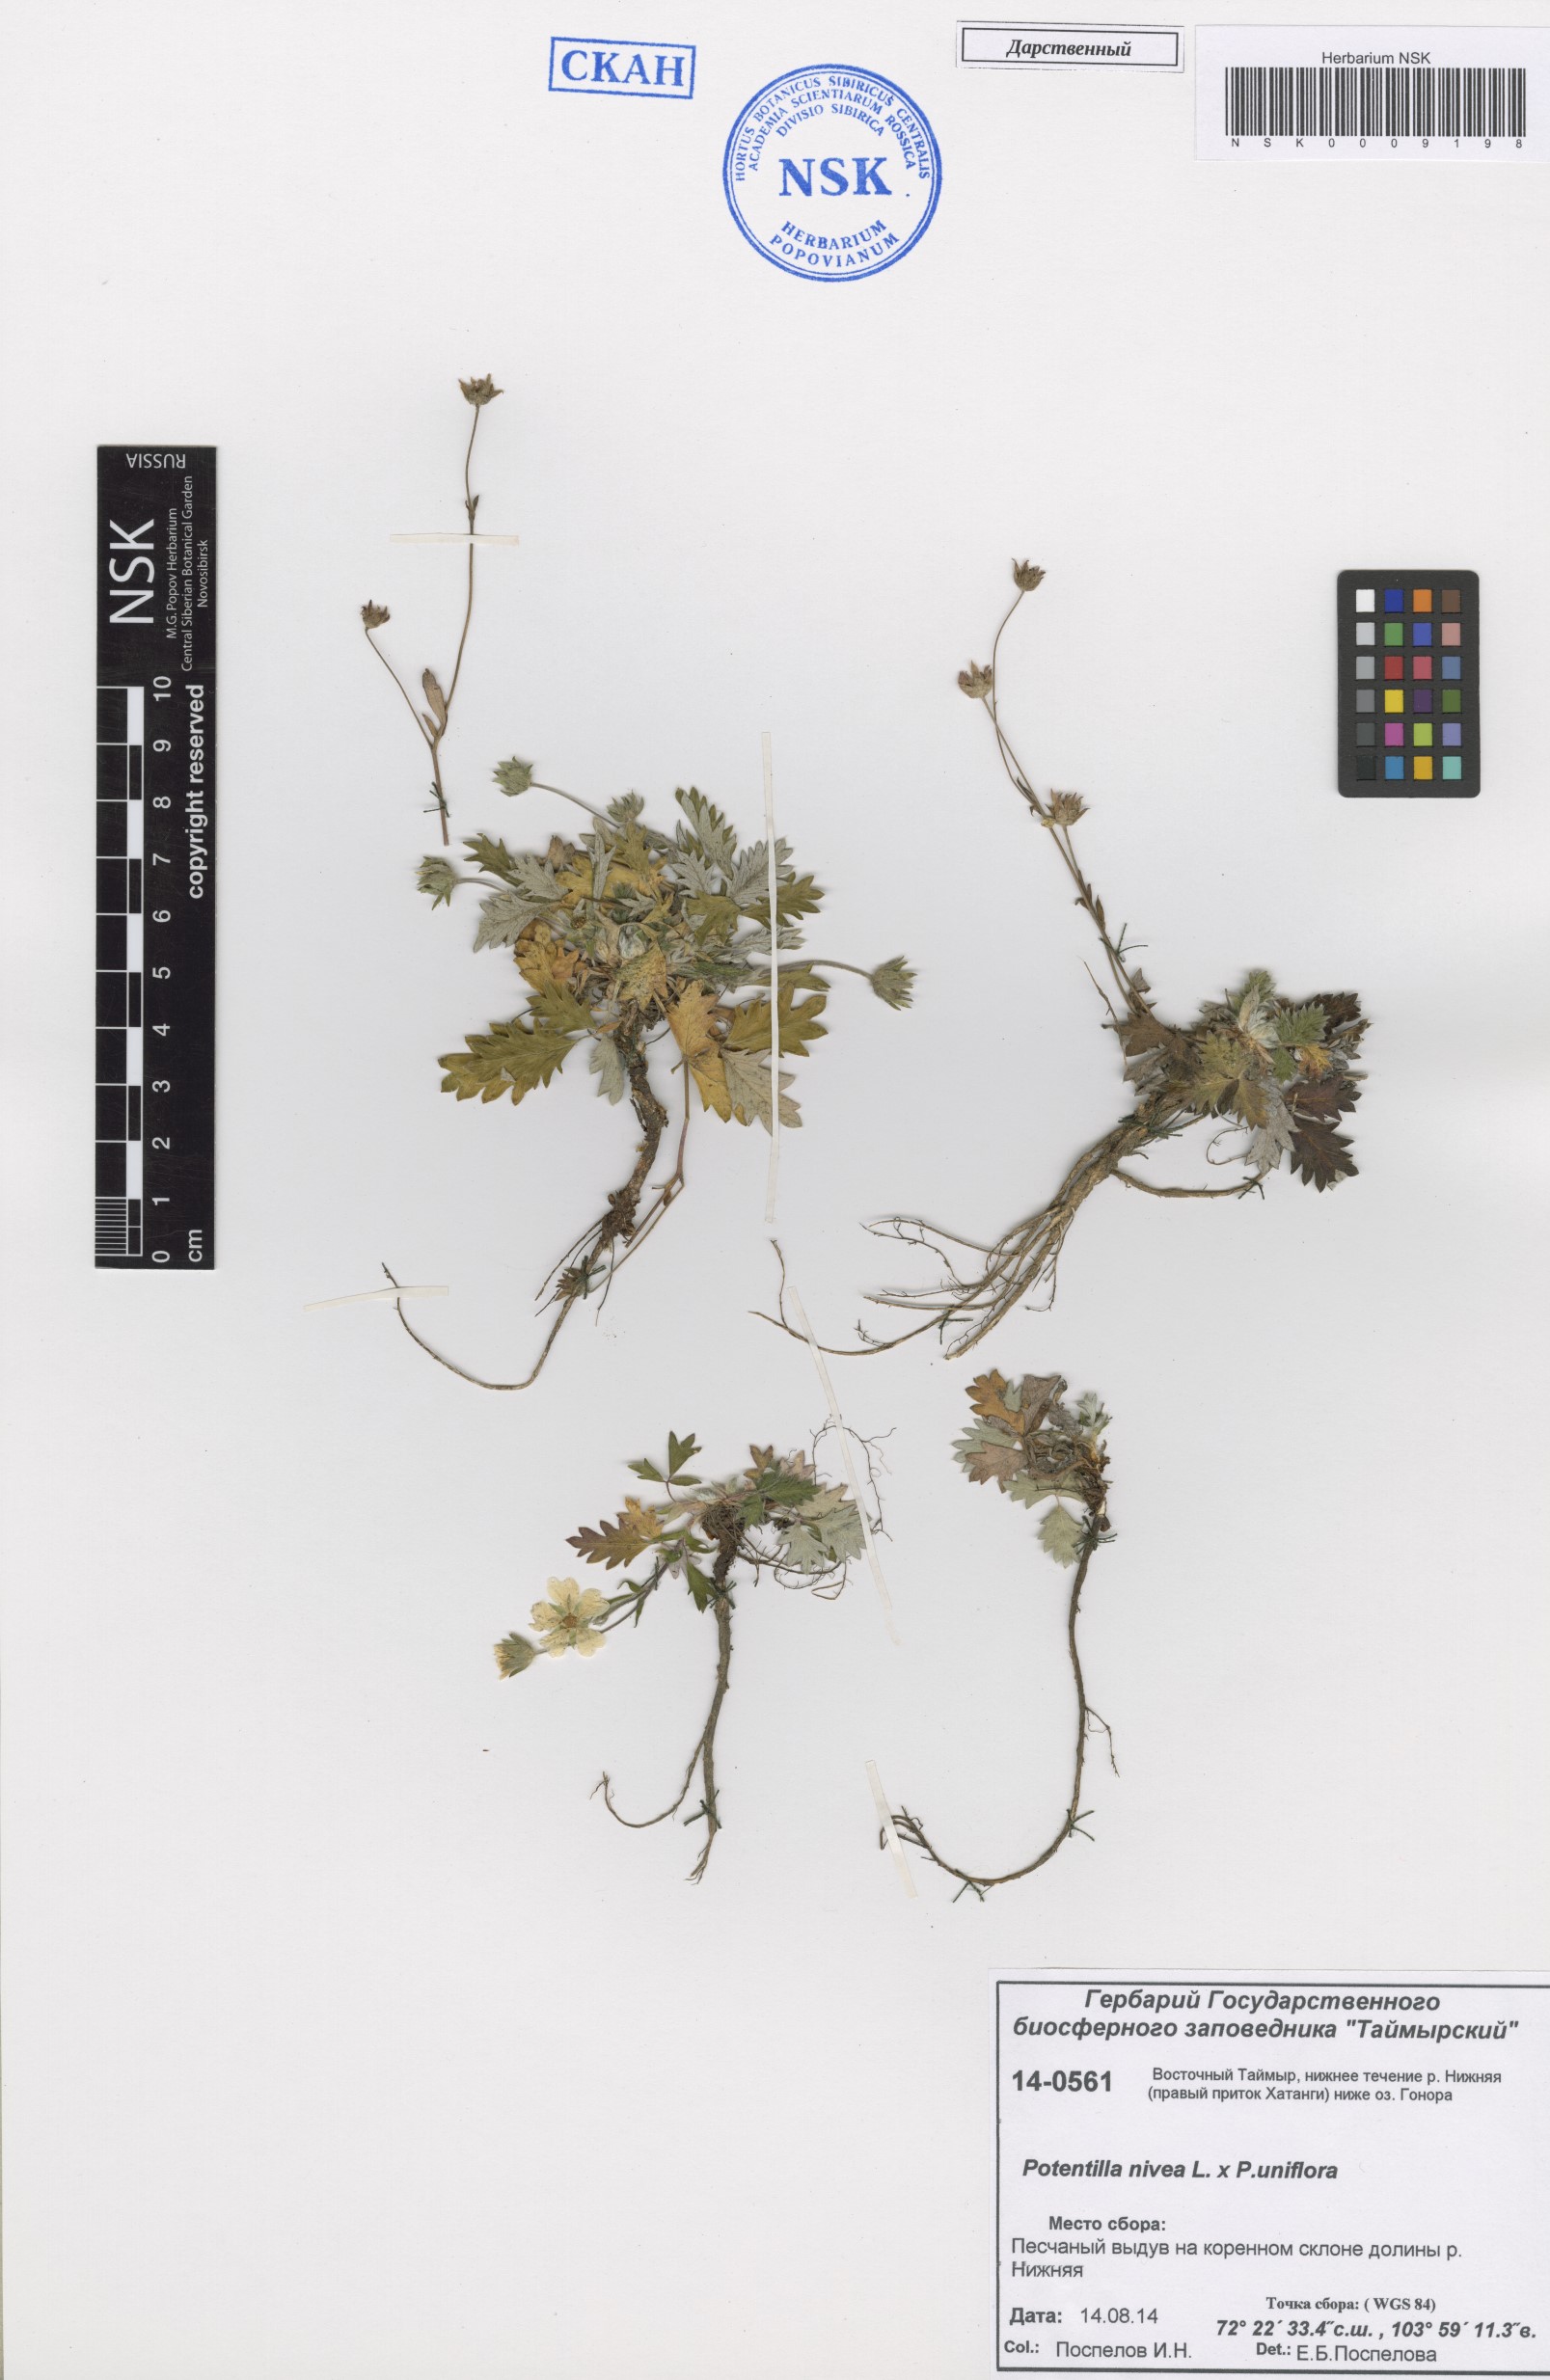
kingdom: Plantae
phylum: Tracheophyta
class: Magnoliopsida
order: Rosales
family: Rosaceae
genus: Potentilla
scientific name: Potentilla nivea
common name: Snow cinquefoil
